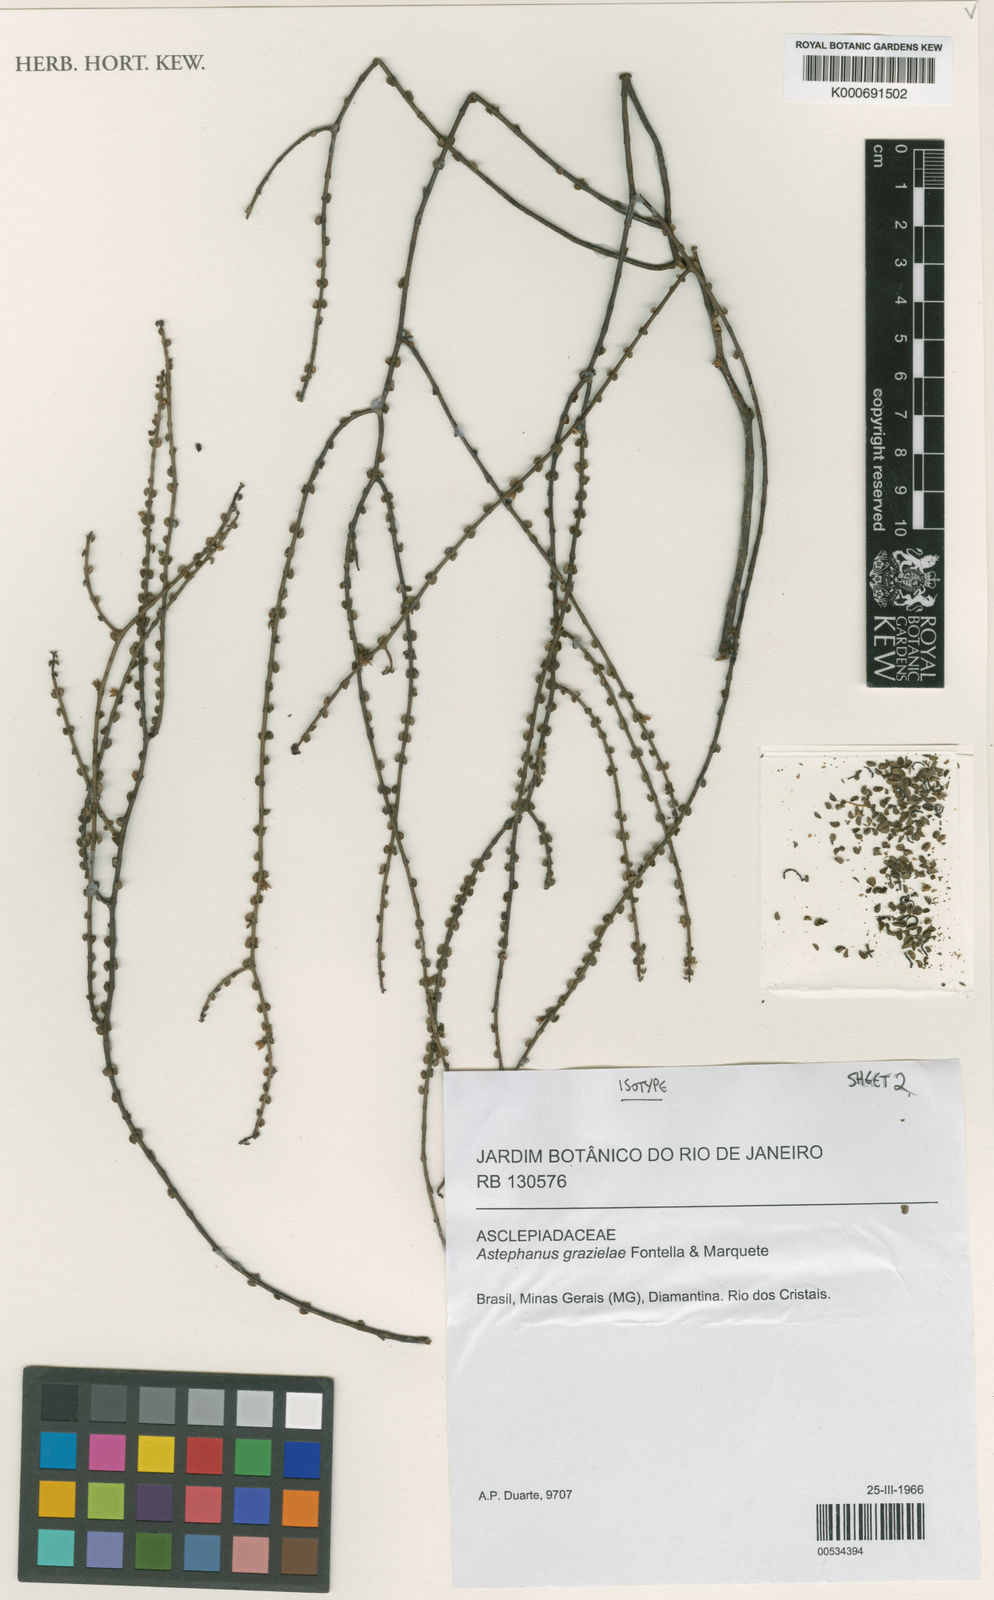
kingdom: Plantae
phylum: Tracheophyta
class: Magnoliopsida
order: Gentianales
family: Apocynaceae
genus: Minaria
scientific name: Minaria grazielae
